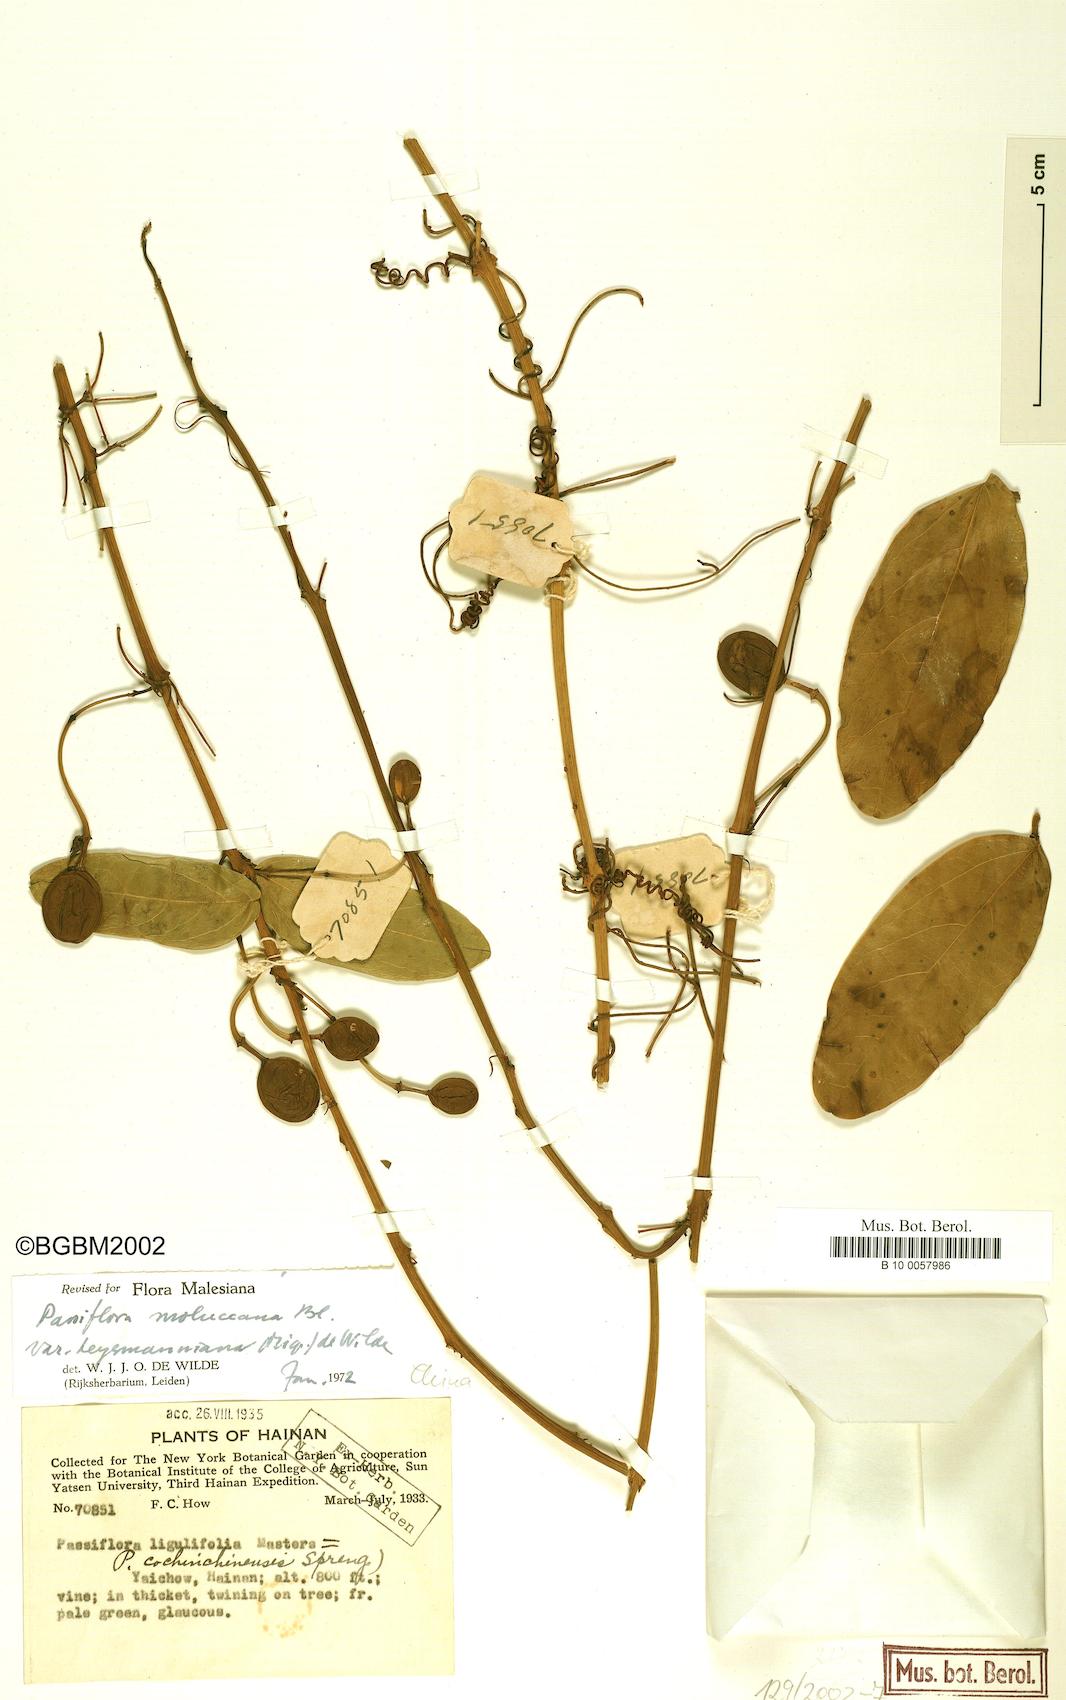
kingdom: Plantae
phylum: Tracheophyta
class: Magnoliopsida
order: Malpighiales
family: Passifloraceae
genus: Passiflora
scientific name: Passiflora moluccana
